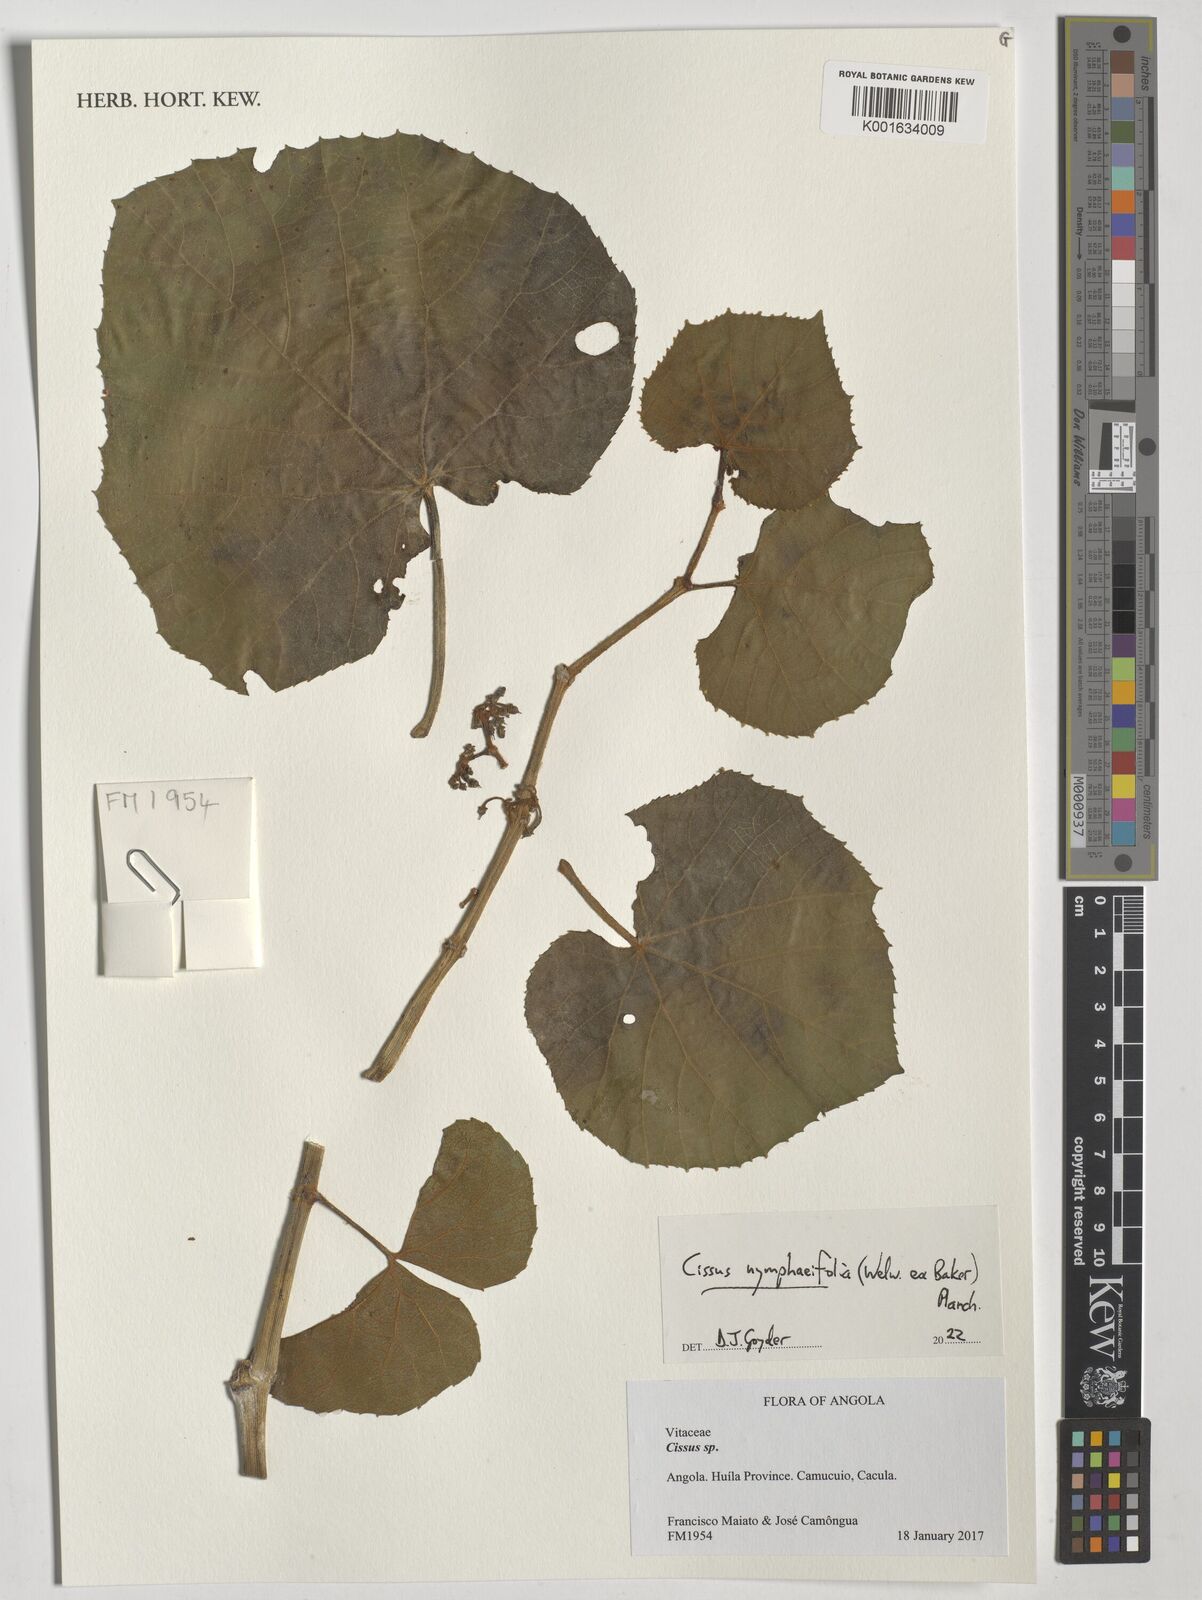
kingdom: Plantae
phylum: Tracheophyta
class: Magnoliopsida
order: Vitales
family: Vitaceae
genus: Cissus
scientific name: Cissus nymphaeifolia
